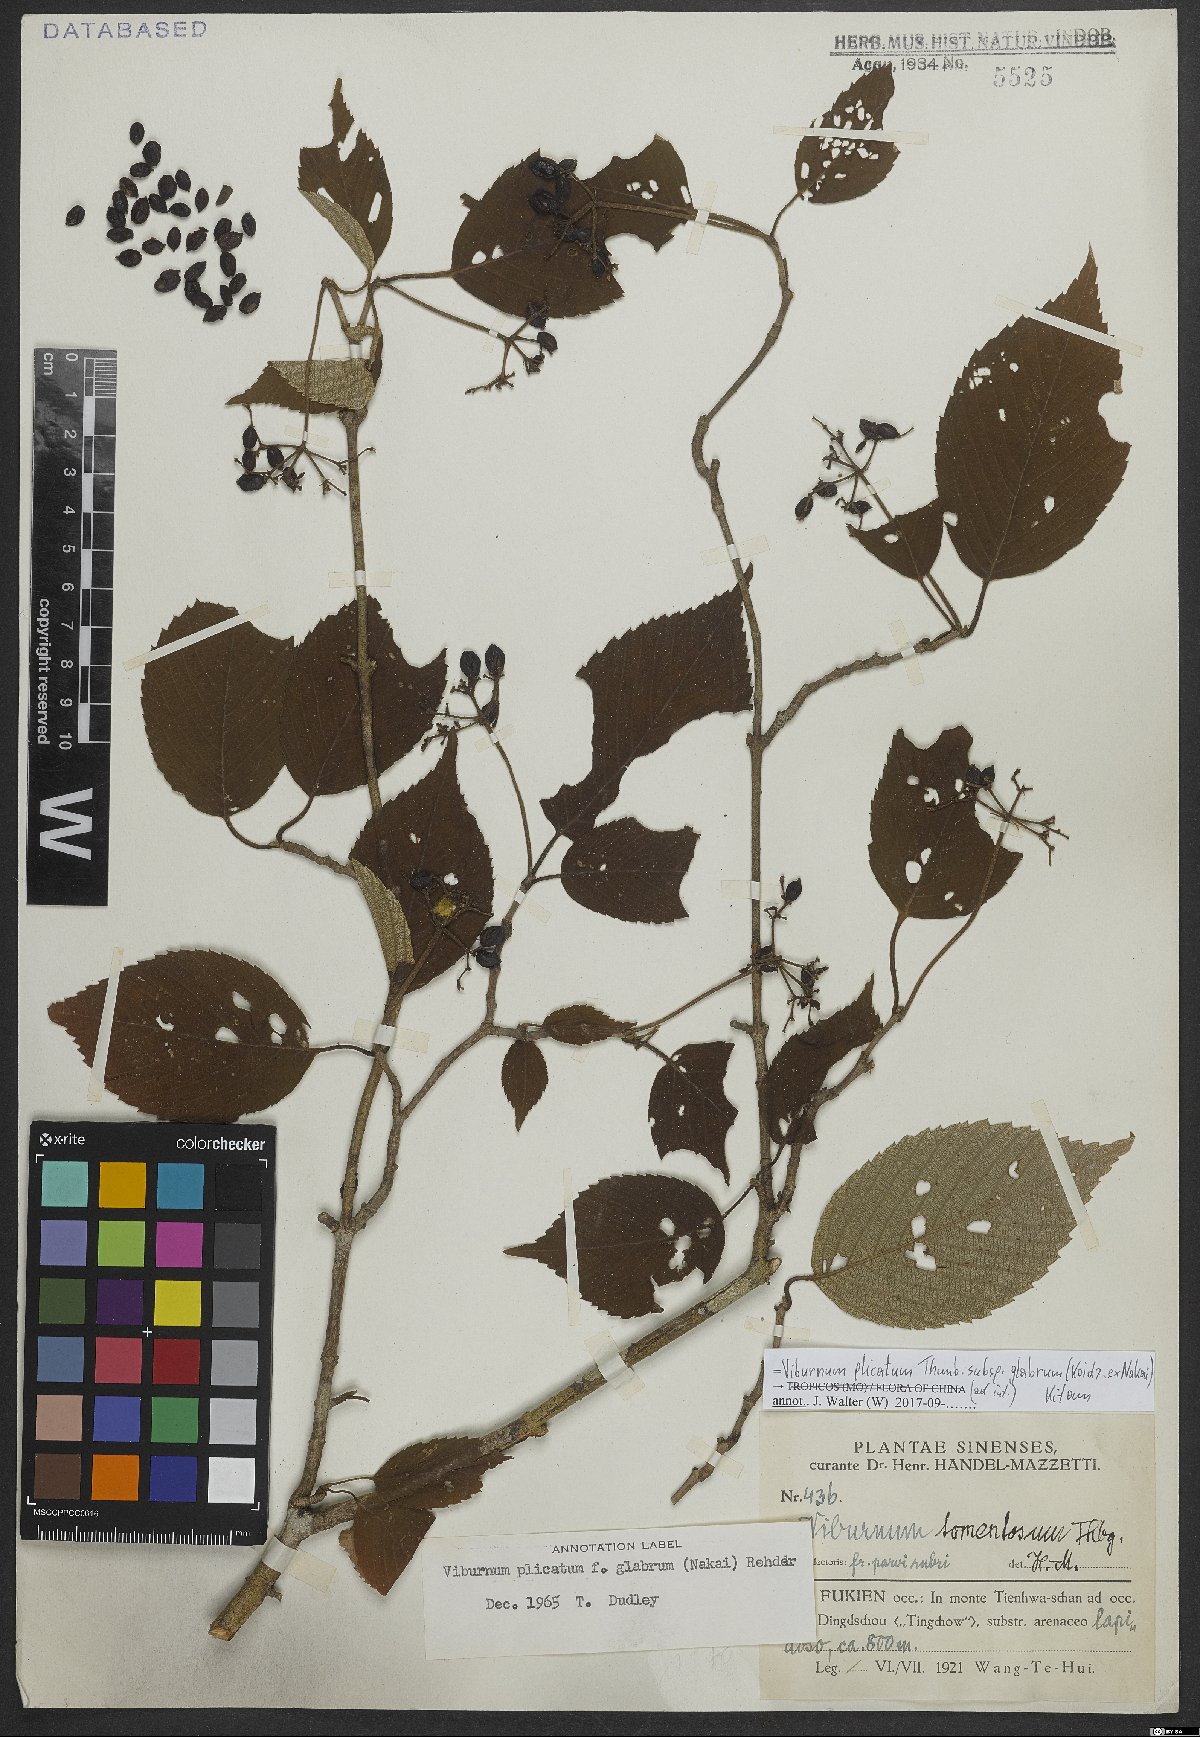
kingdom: Plantae
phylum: Tracheophyta
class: Magnoliopsida
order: Dipsacales
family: Viburnaceae
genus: Viburnum
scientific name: Viburnum plicatum
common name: Japanese snowball
